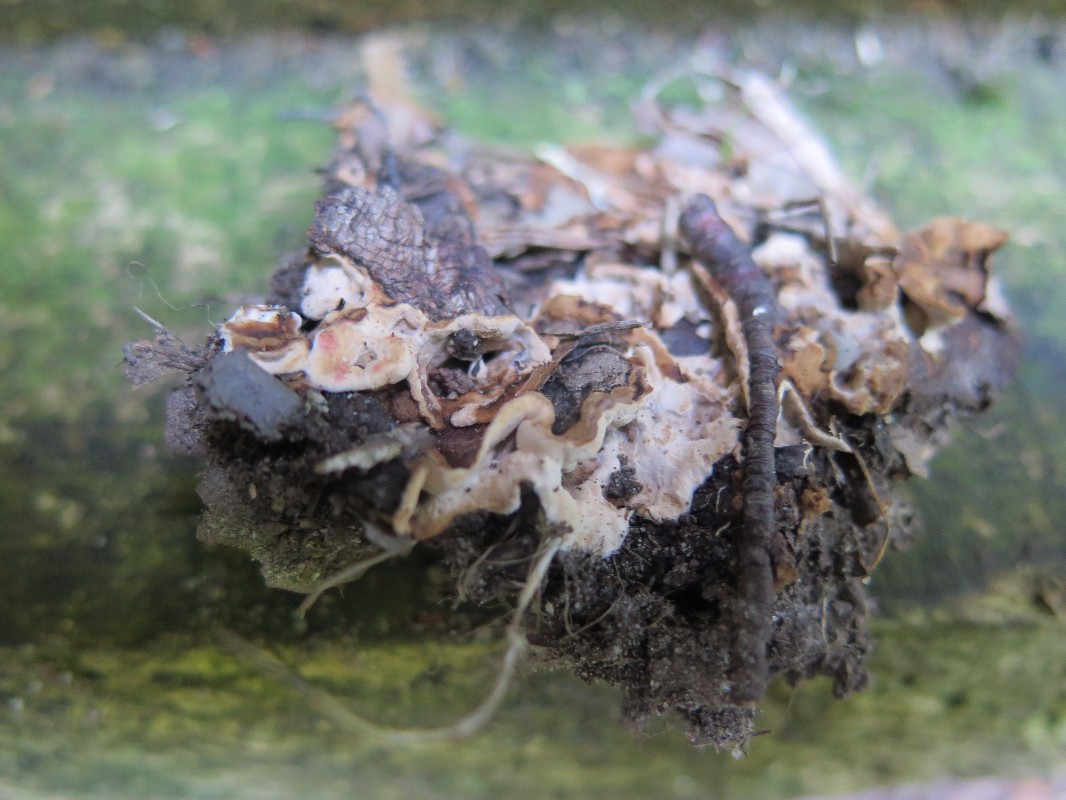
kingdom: Fungi
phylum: Basidiomycota
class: Agaricomycetes
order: Russulales
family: Hericiaceae
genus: Laxitextum
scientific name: Laxitextum bicolor
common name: tvefarvet filtskind
